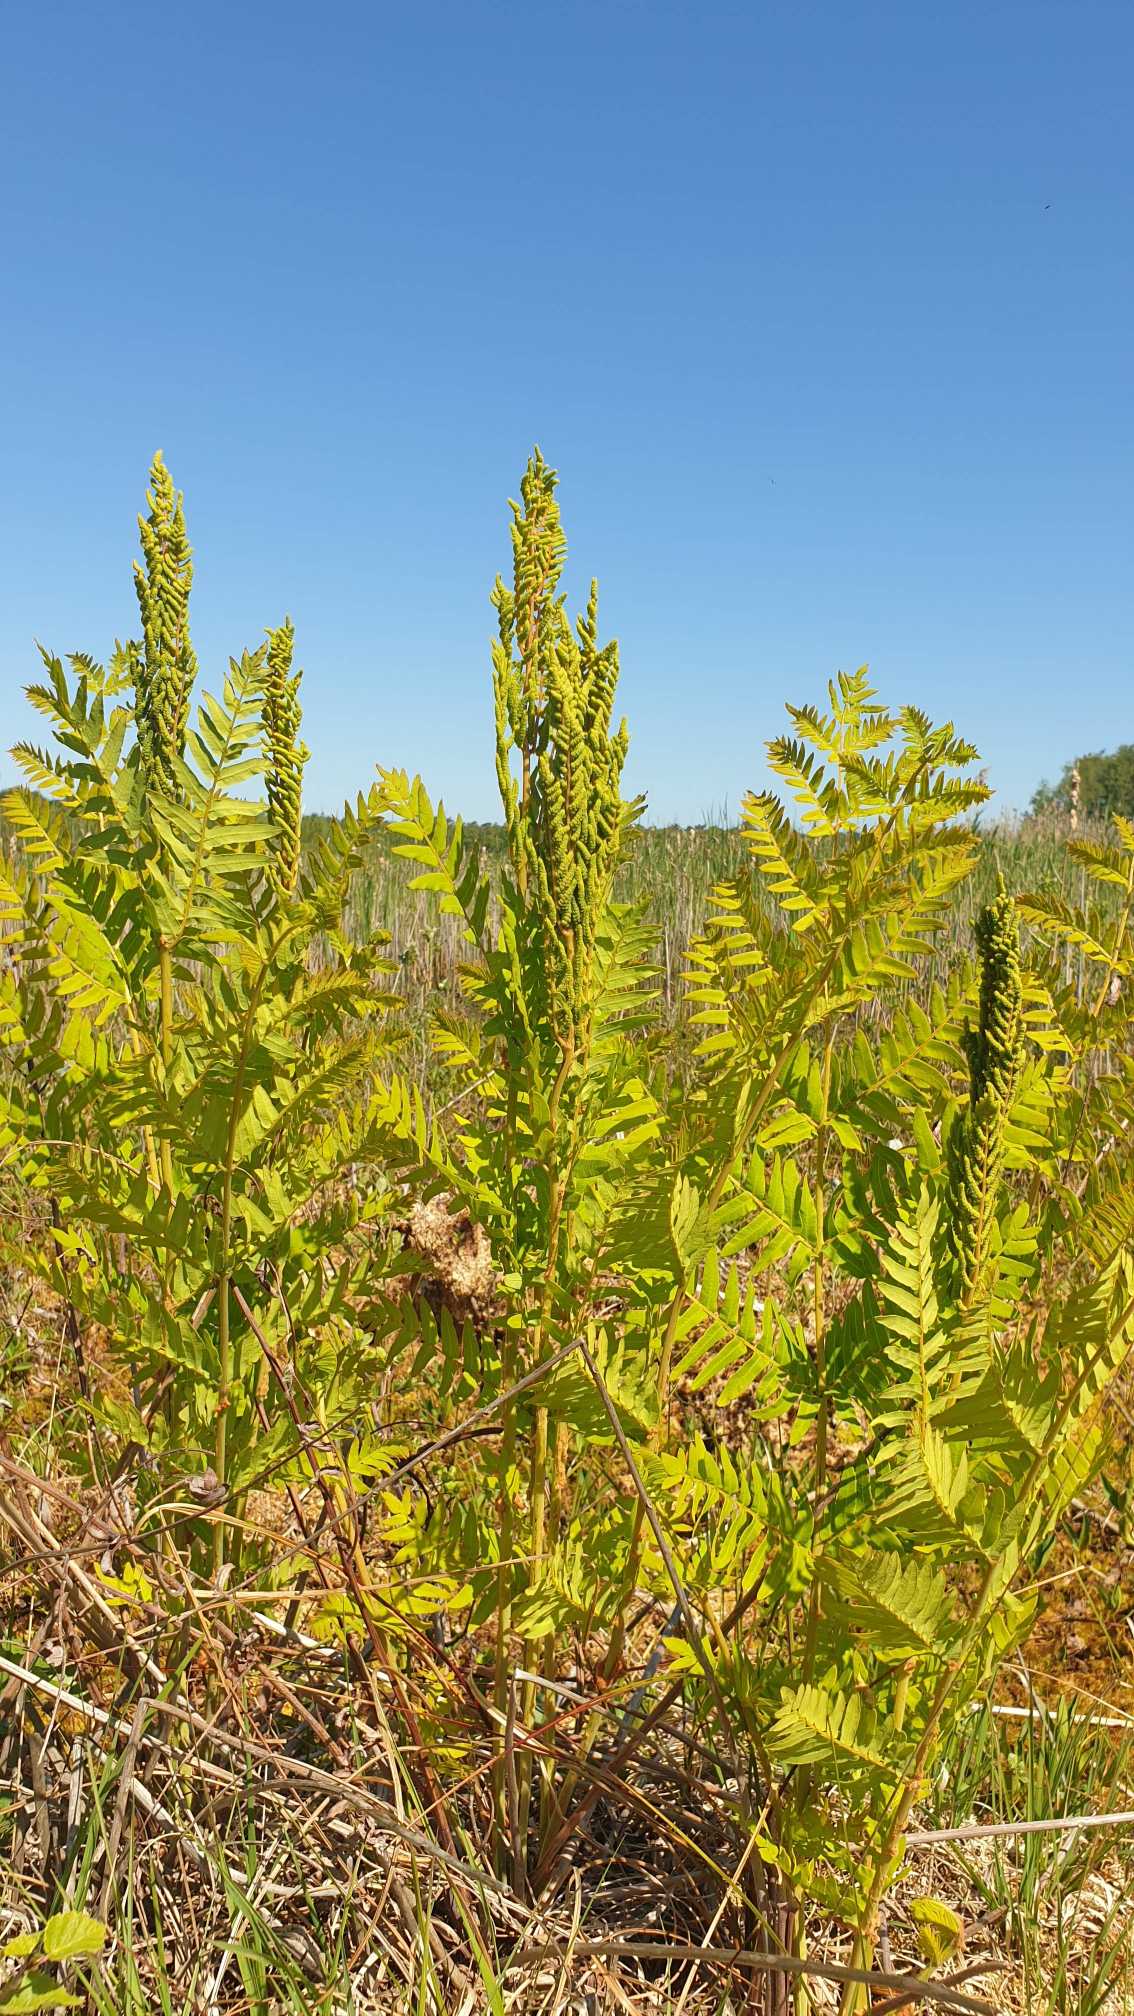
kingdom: Plantae
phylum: Tracheophyta
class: Polypodiopsida
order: Osmundales
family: Osmundaceae
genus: Osmunda
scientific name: Osmunda regalis
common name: Kongebregne
